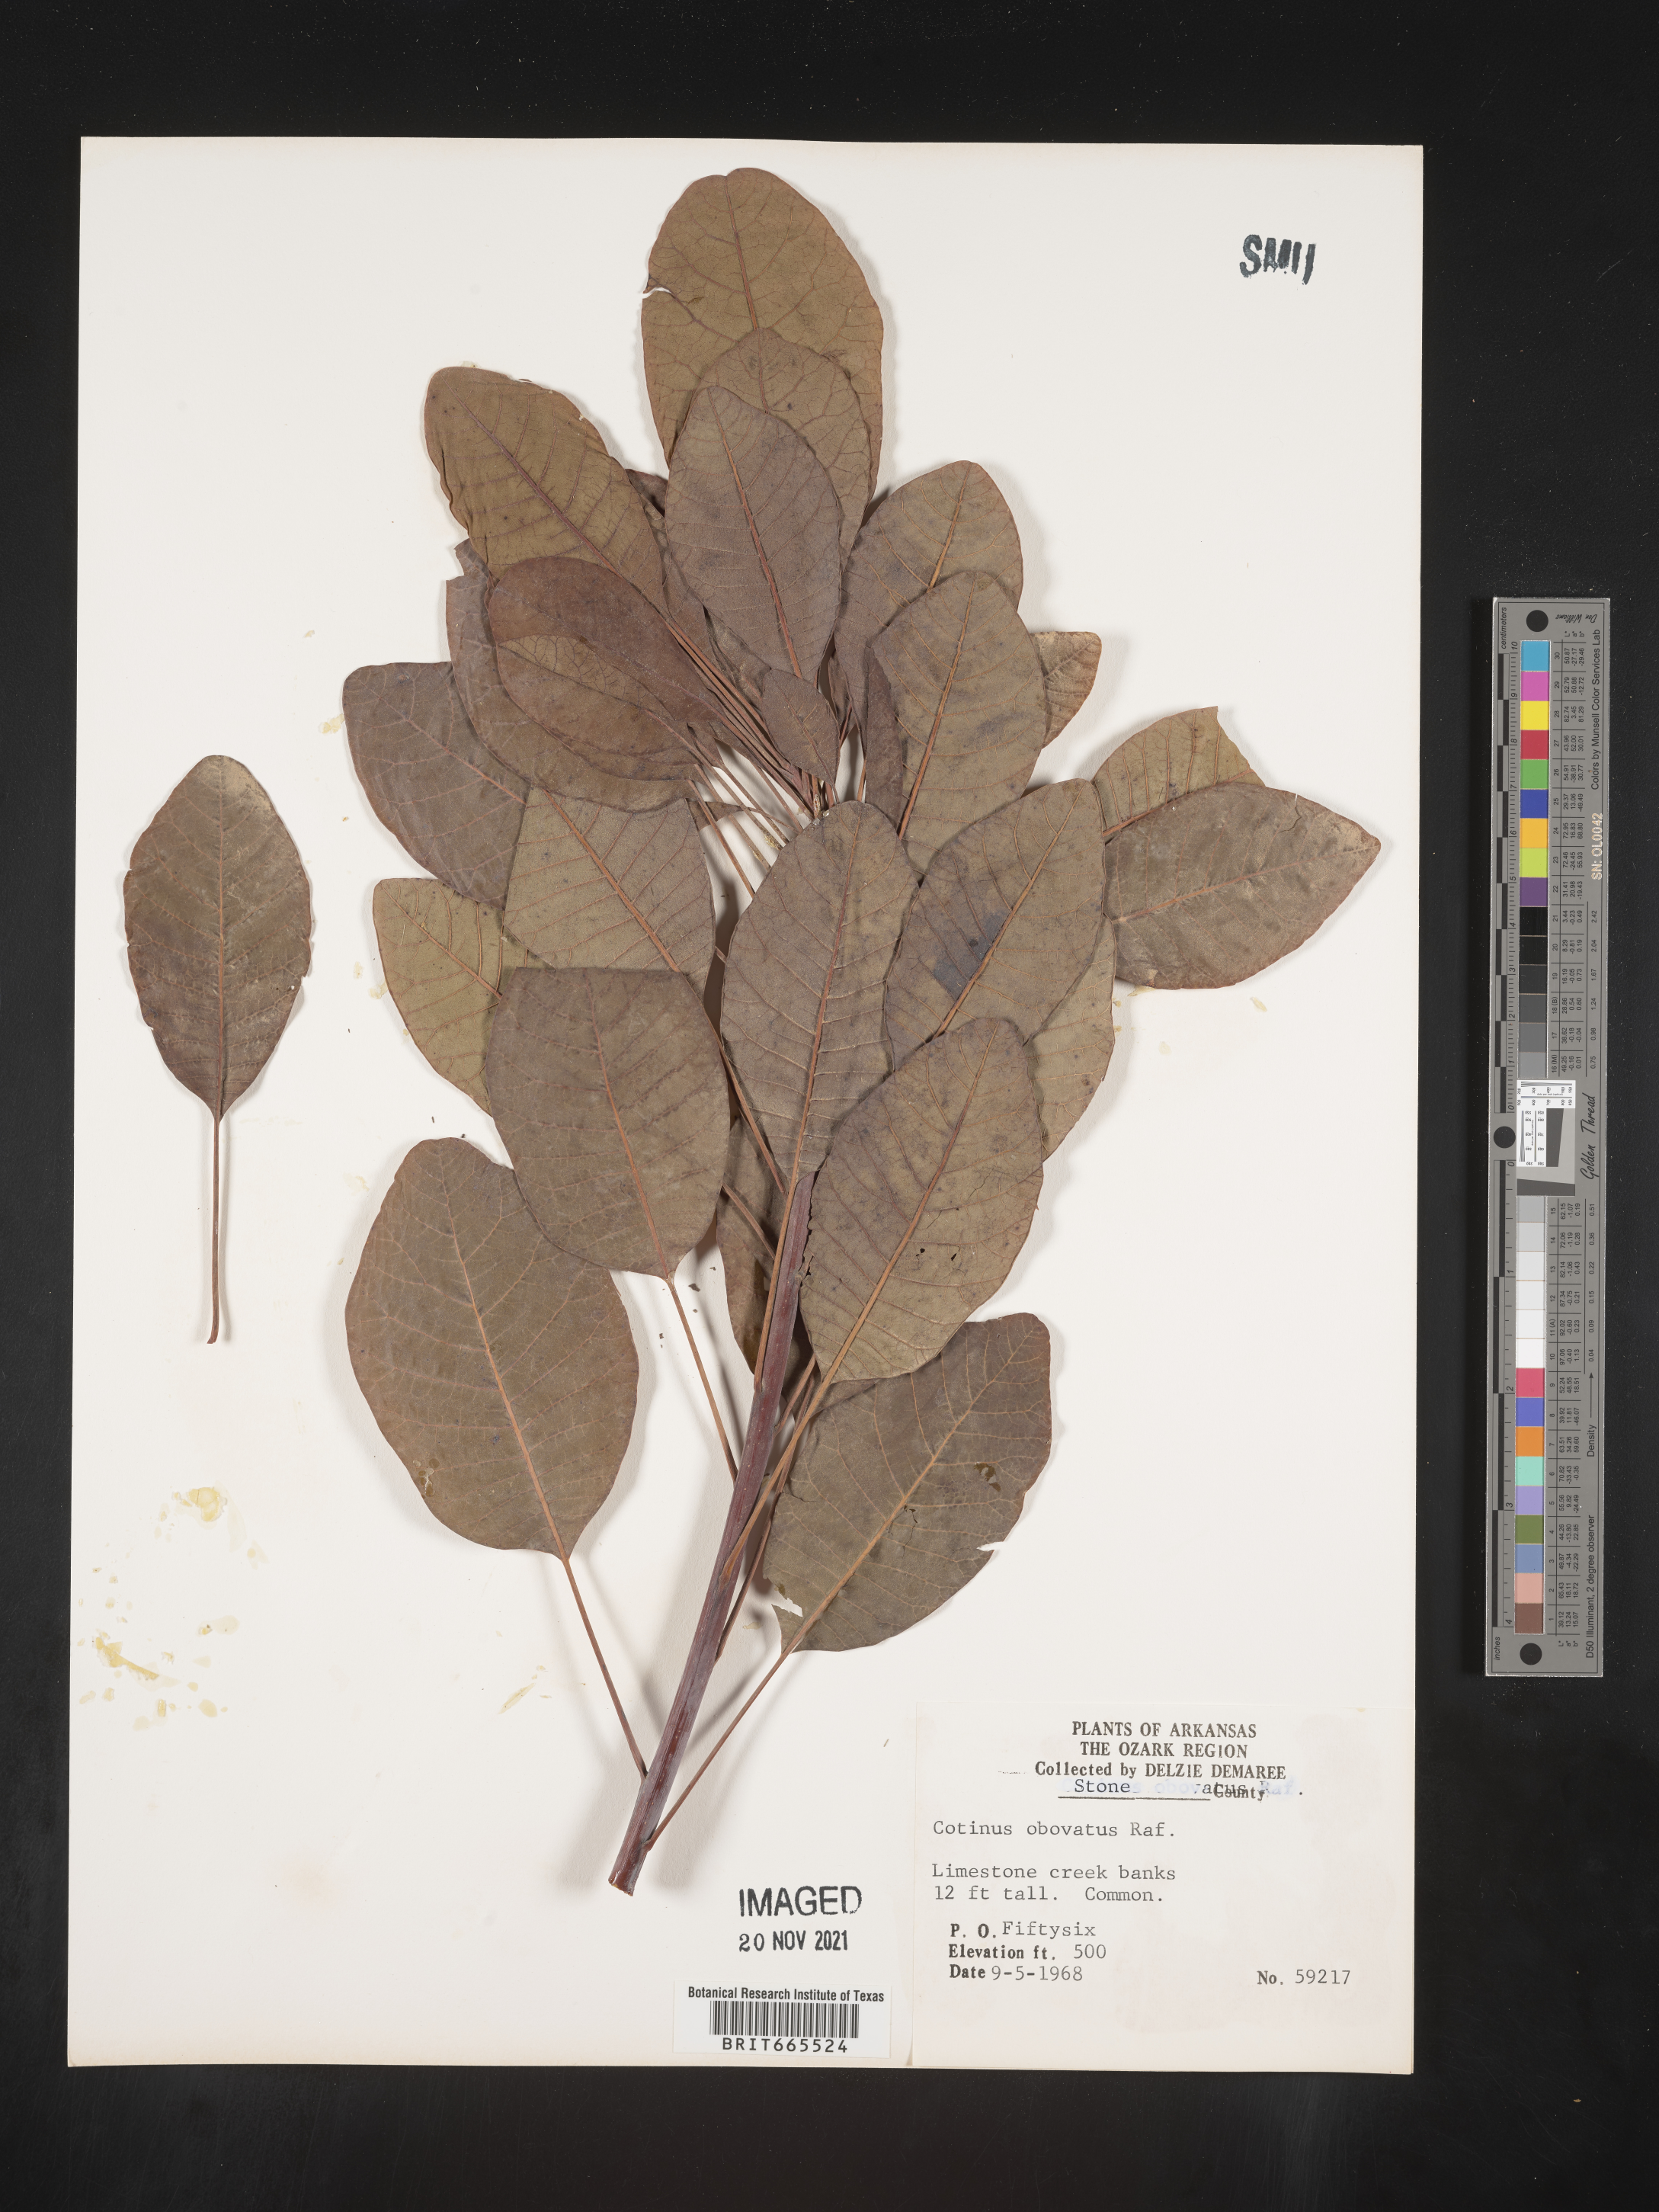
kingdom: Plantae
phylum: Tracheophyta
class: Magnoliopsida
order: Sapindales
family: Anacardiaceae
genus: Cotinus
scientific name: Cotinus obovatus
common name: Chittamwood
